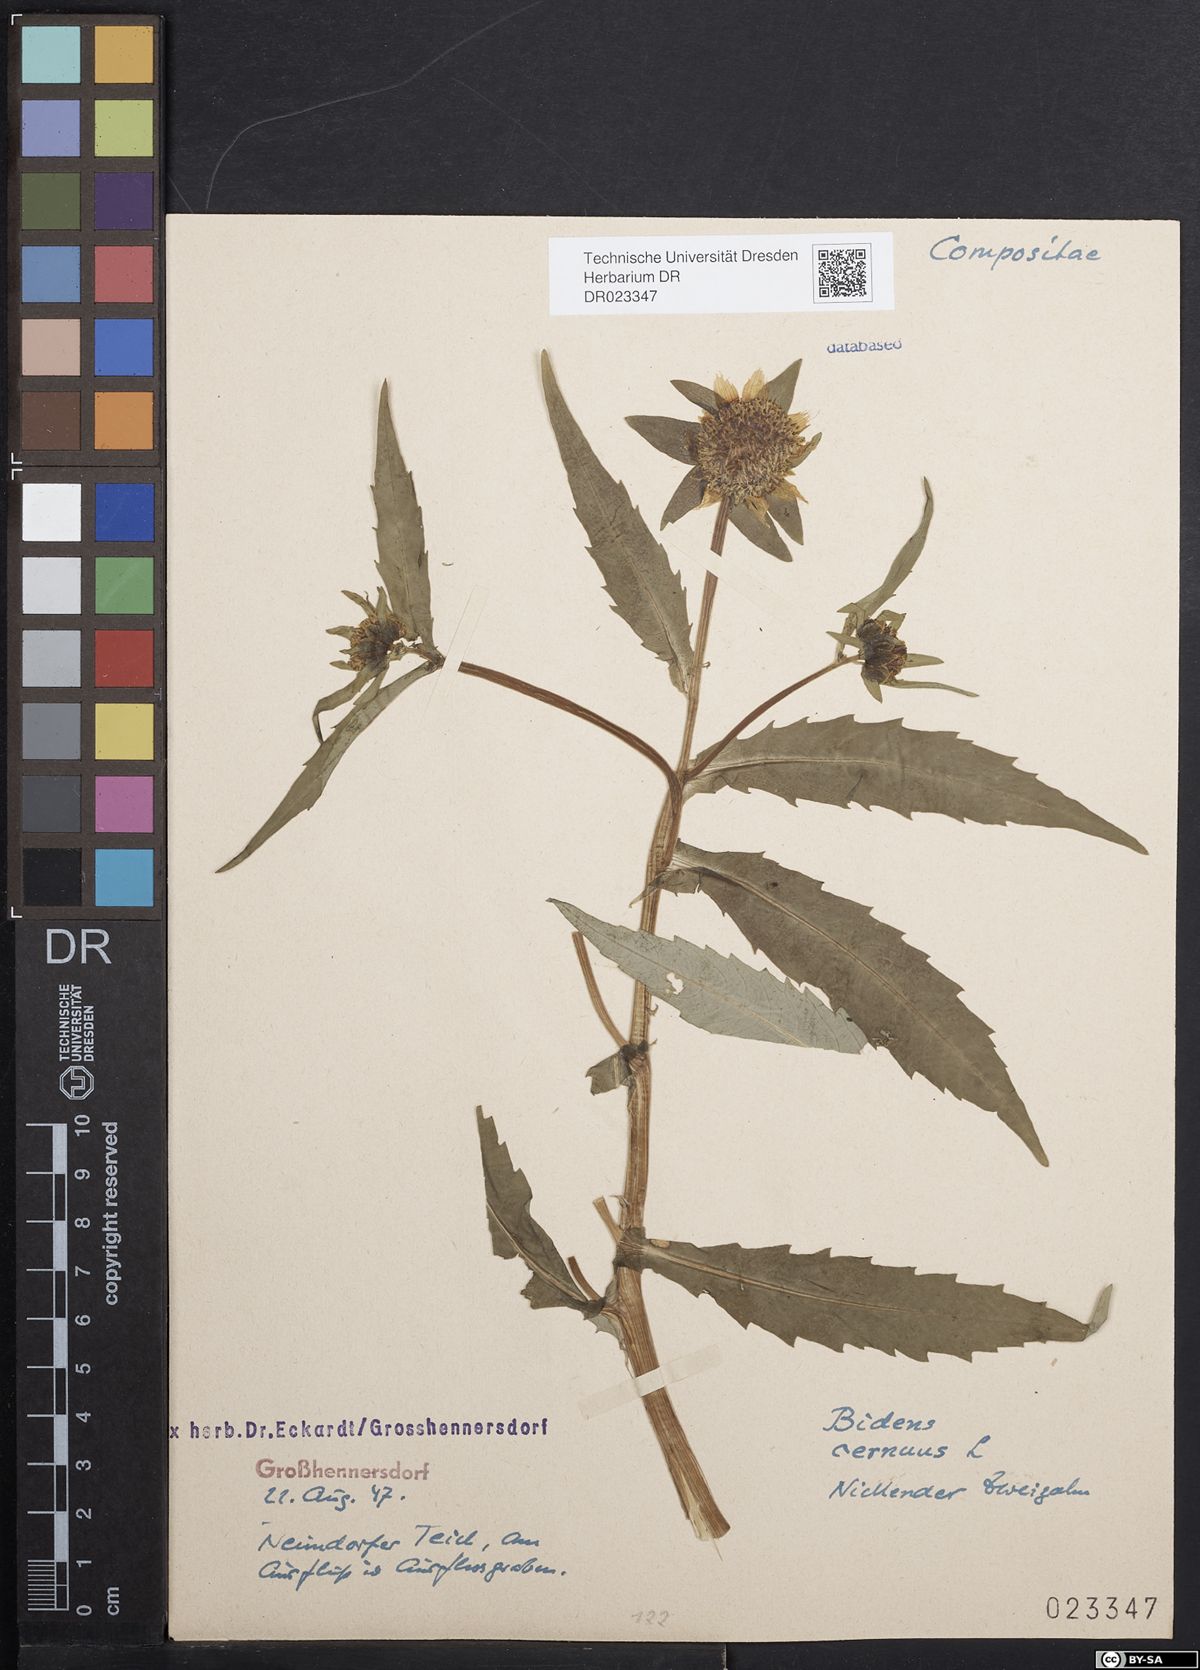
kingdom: Plantae
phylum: Tracheophyta
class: Magnoliopsida
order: Asterales
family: Asteraceae
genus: Bidens
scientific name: Bidens cernua
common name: Nodding bur-marigold
